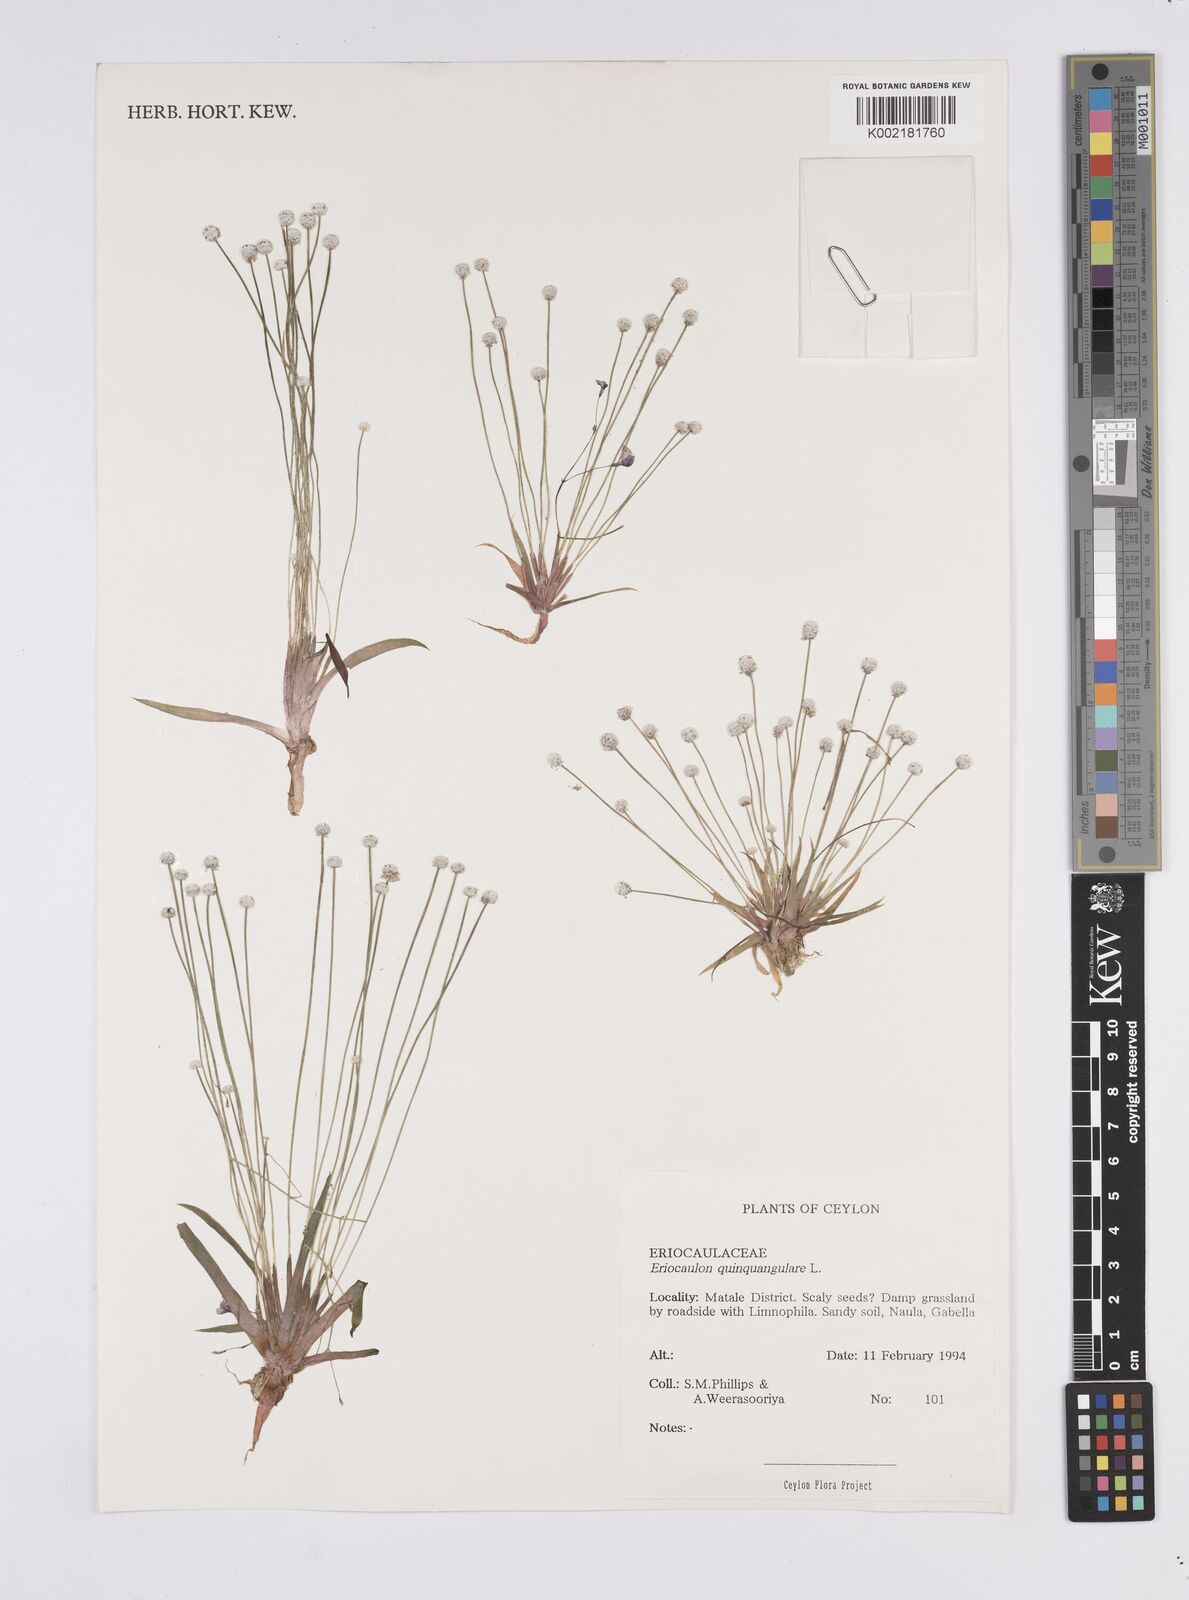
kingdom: Plantae
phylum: Tracheophyta
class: Liliopsida
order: Poales
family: Eriocaulaceae
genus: Eriocaulon
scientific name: Eriocaulon quinquangulare
